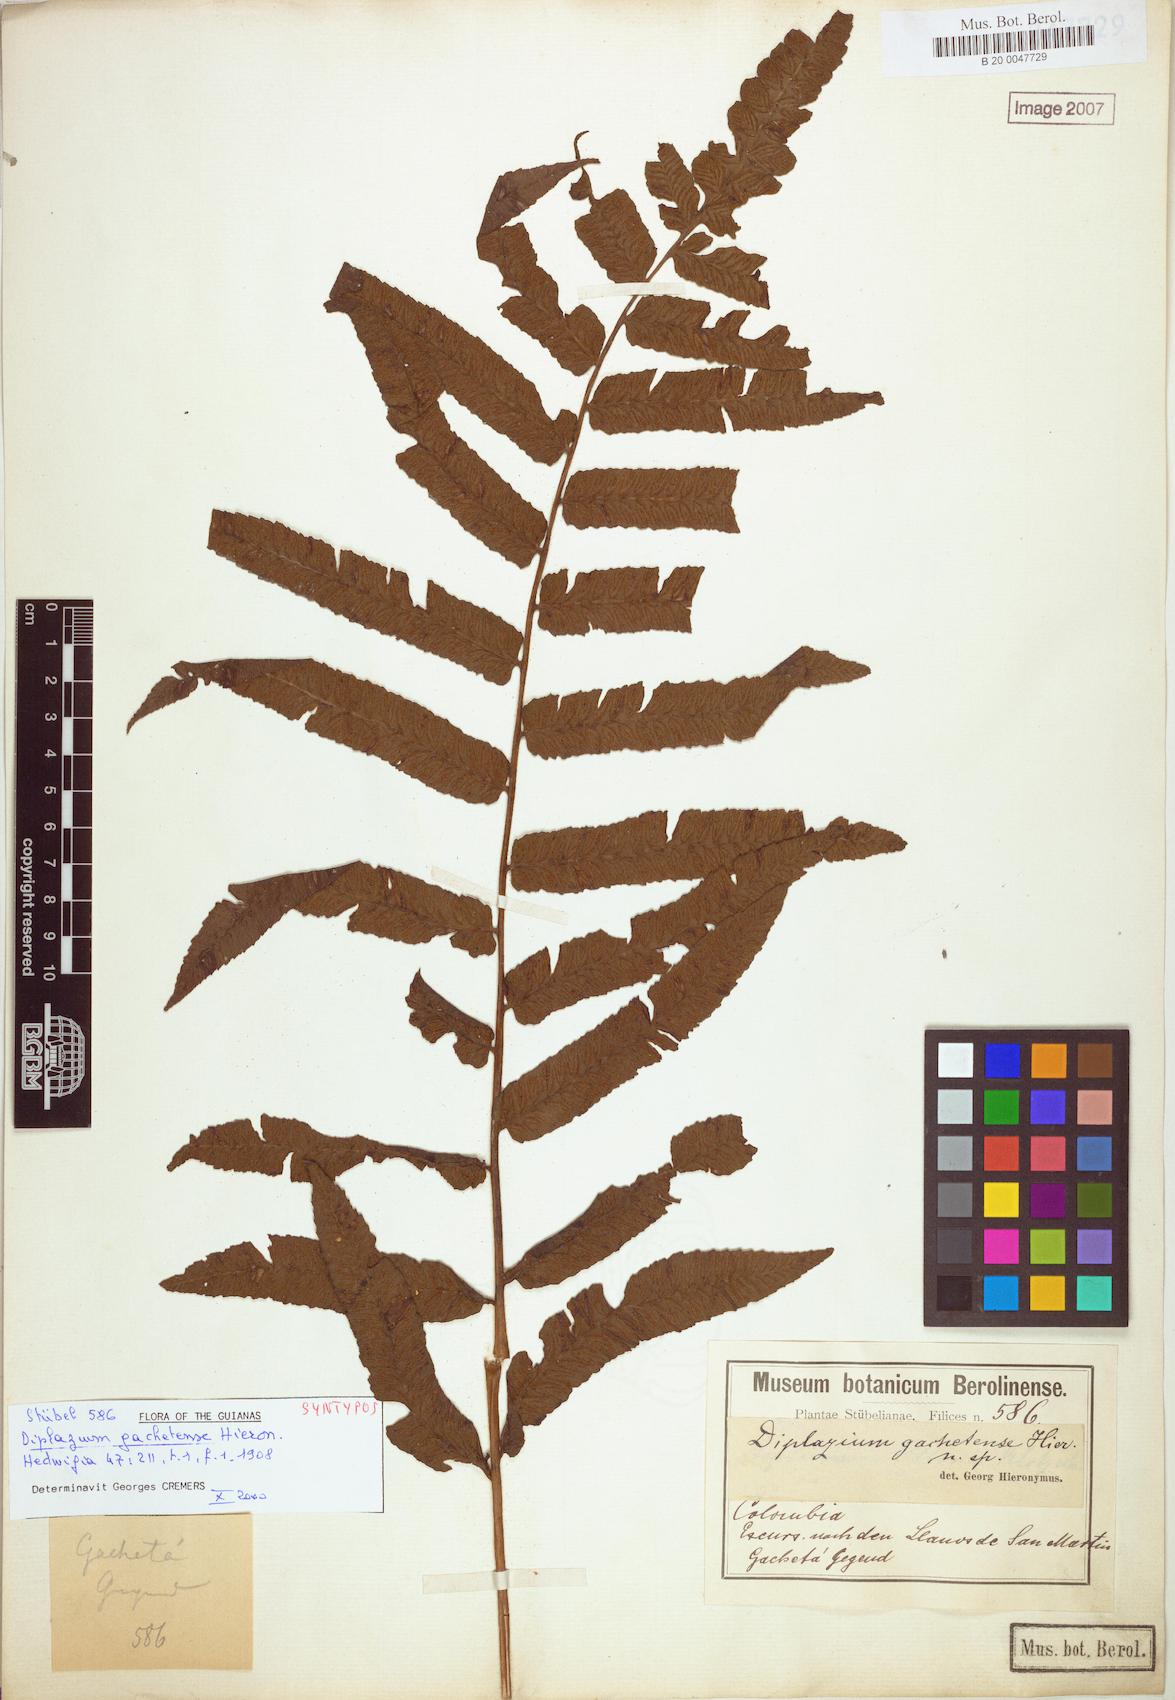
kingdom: Plantae
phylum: Tracheophyta
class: Polypodiopsida
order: Polypodiales
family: Athyriaceae
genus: Diplazium
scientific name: Diplazium gachetense
